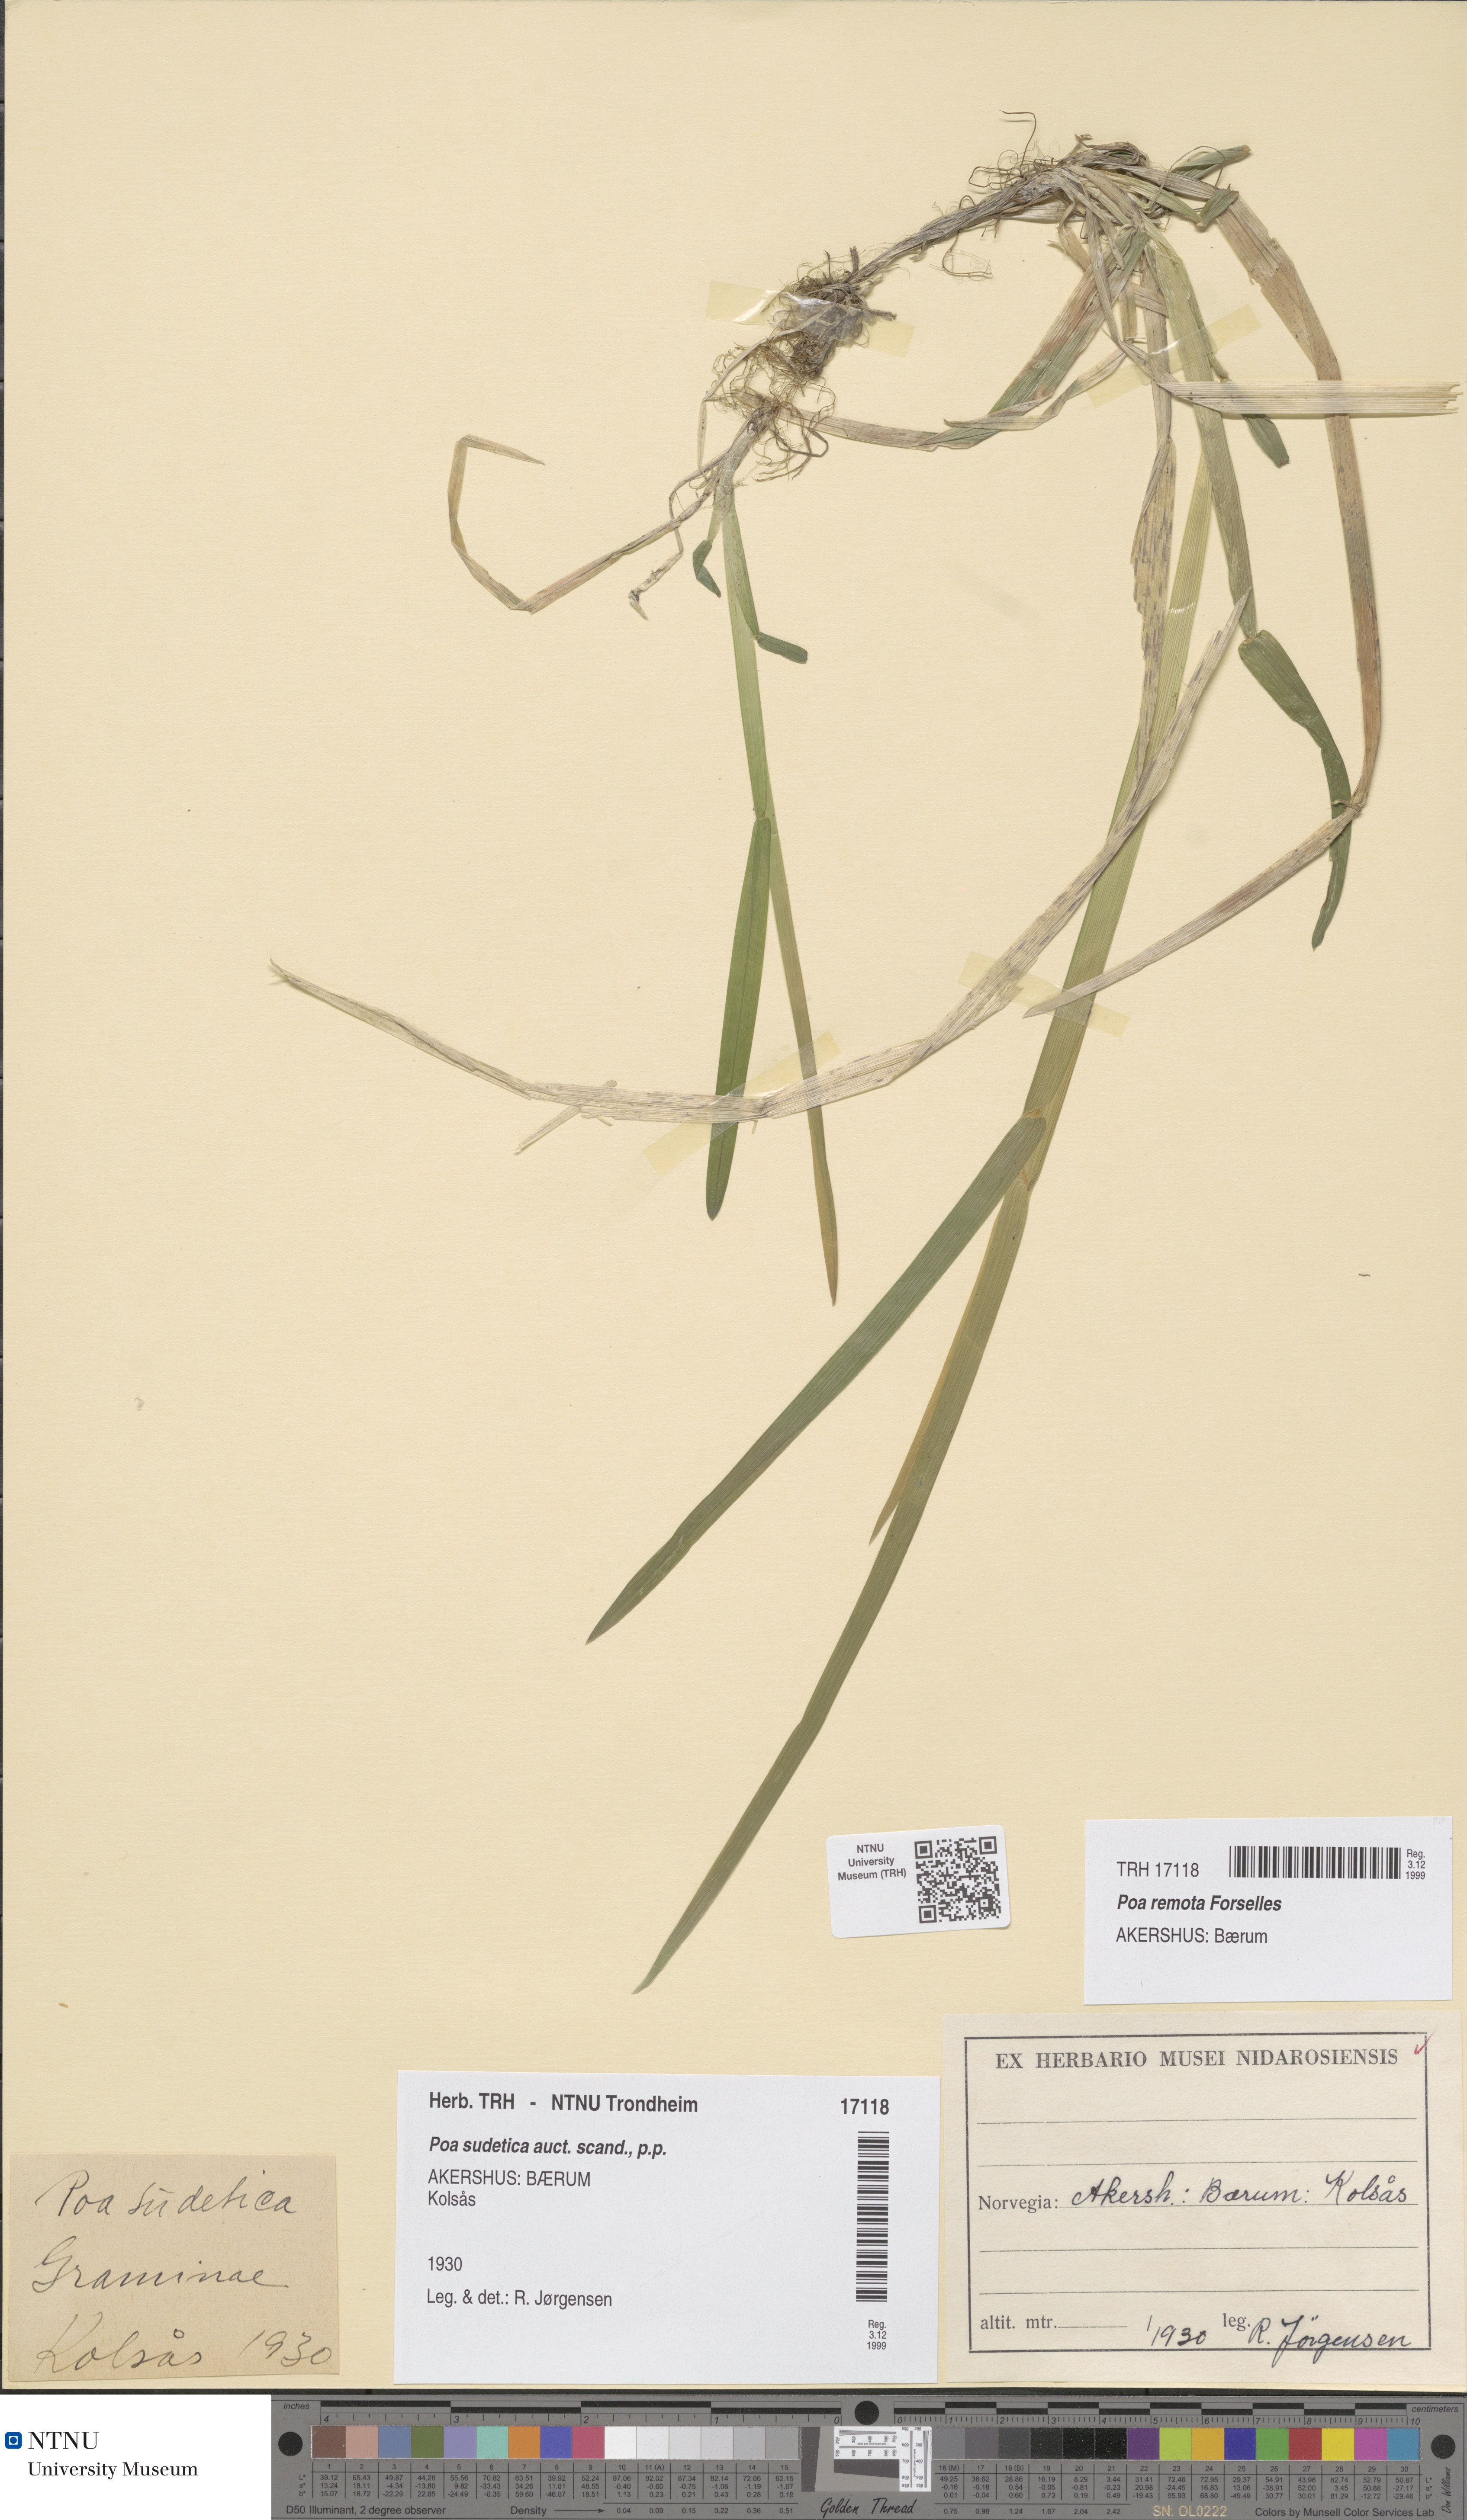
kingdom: Plantae
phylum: Tracheophyta
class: Liliopsida
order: Poales
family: Poaceae
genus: Poa
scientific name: Poa remota
